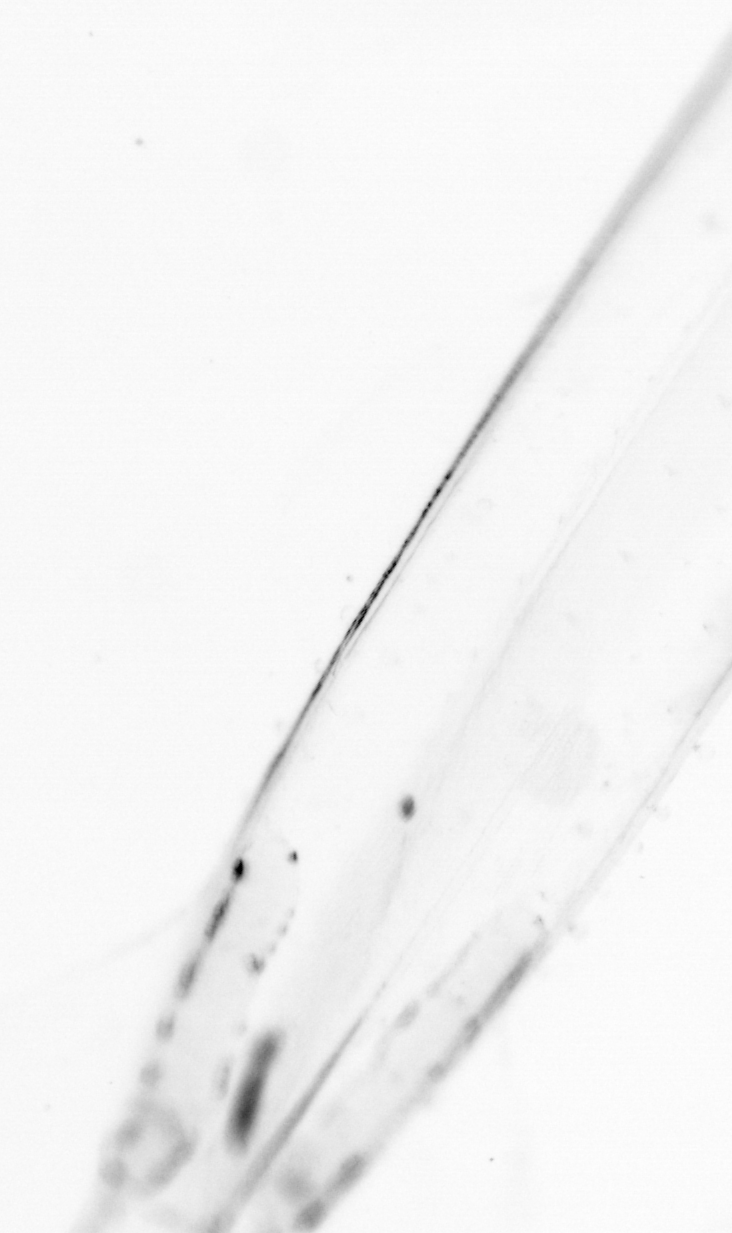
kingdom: Animalia
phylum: Chaetognatha
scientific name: Chaetognatha
